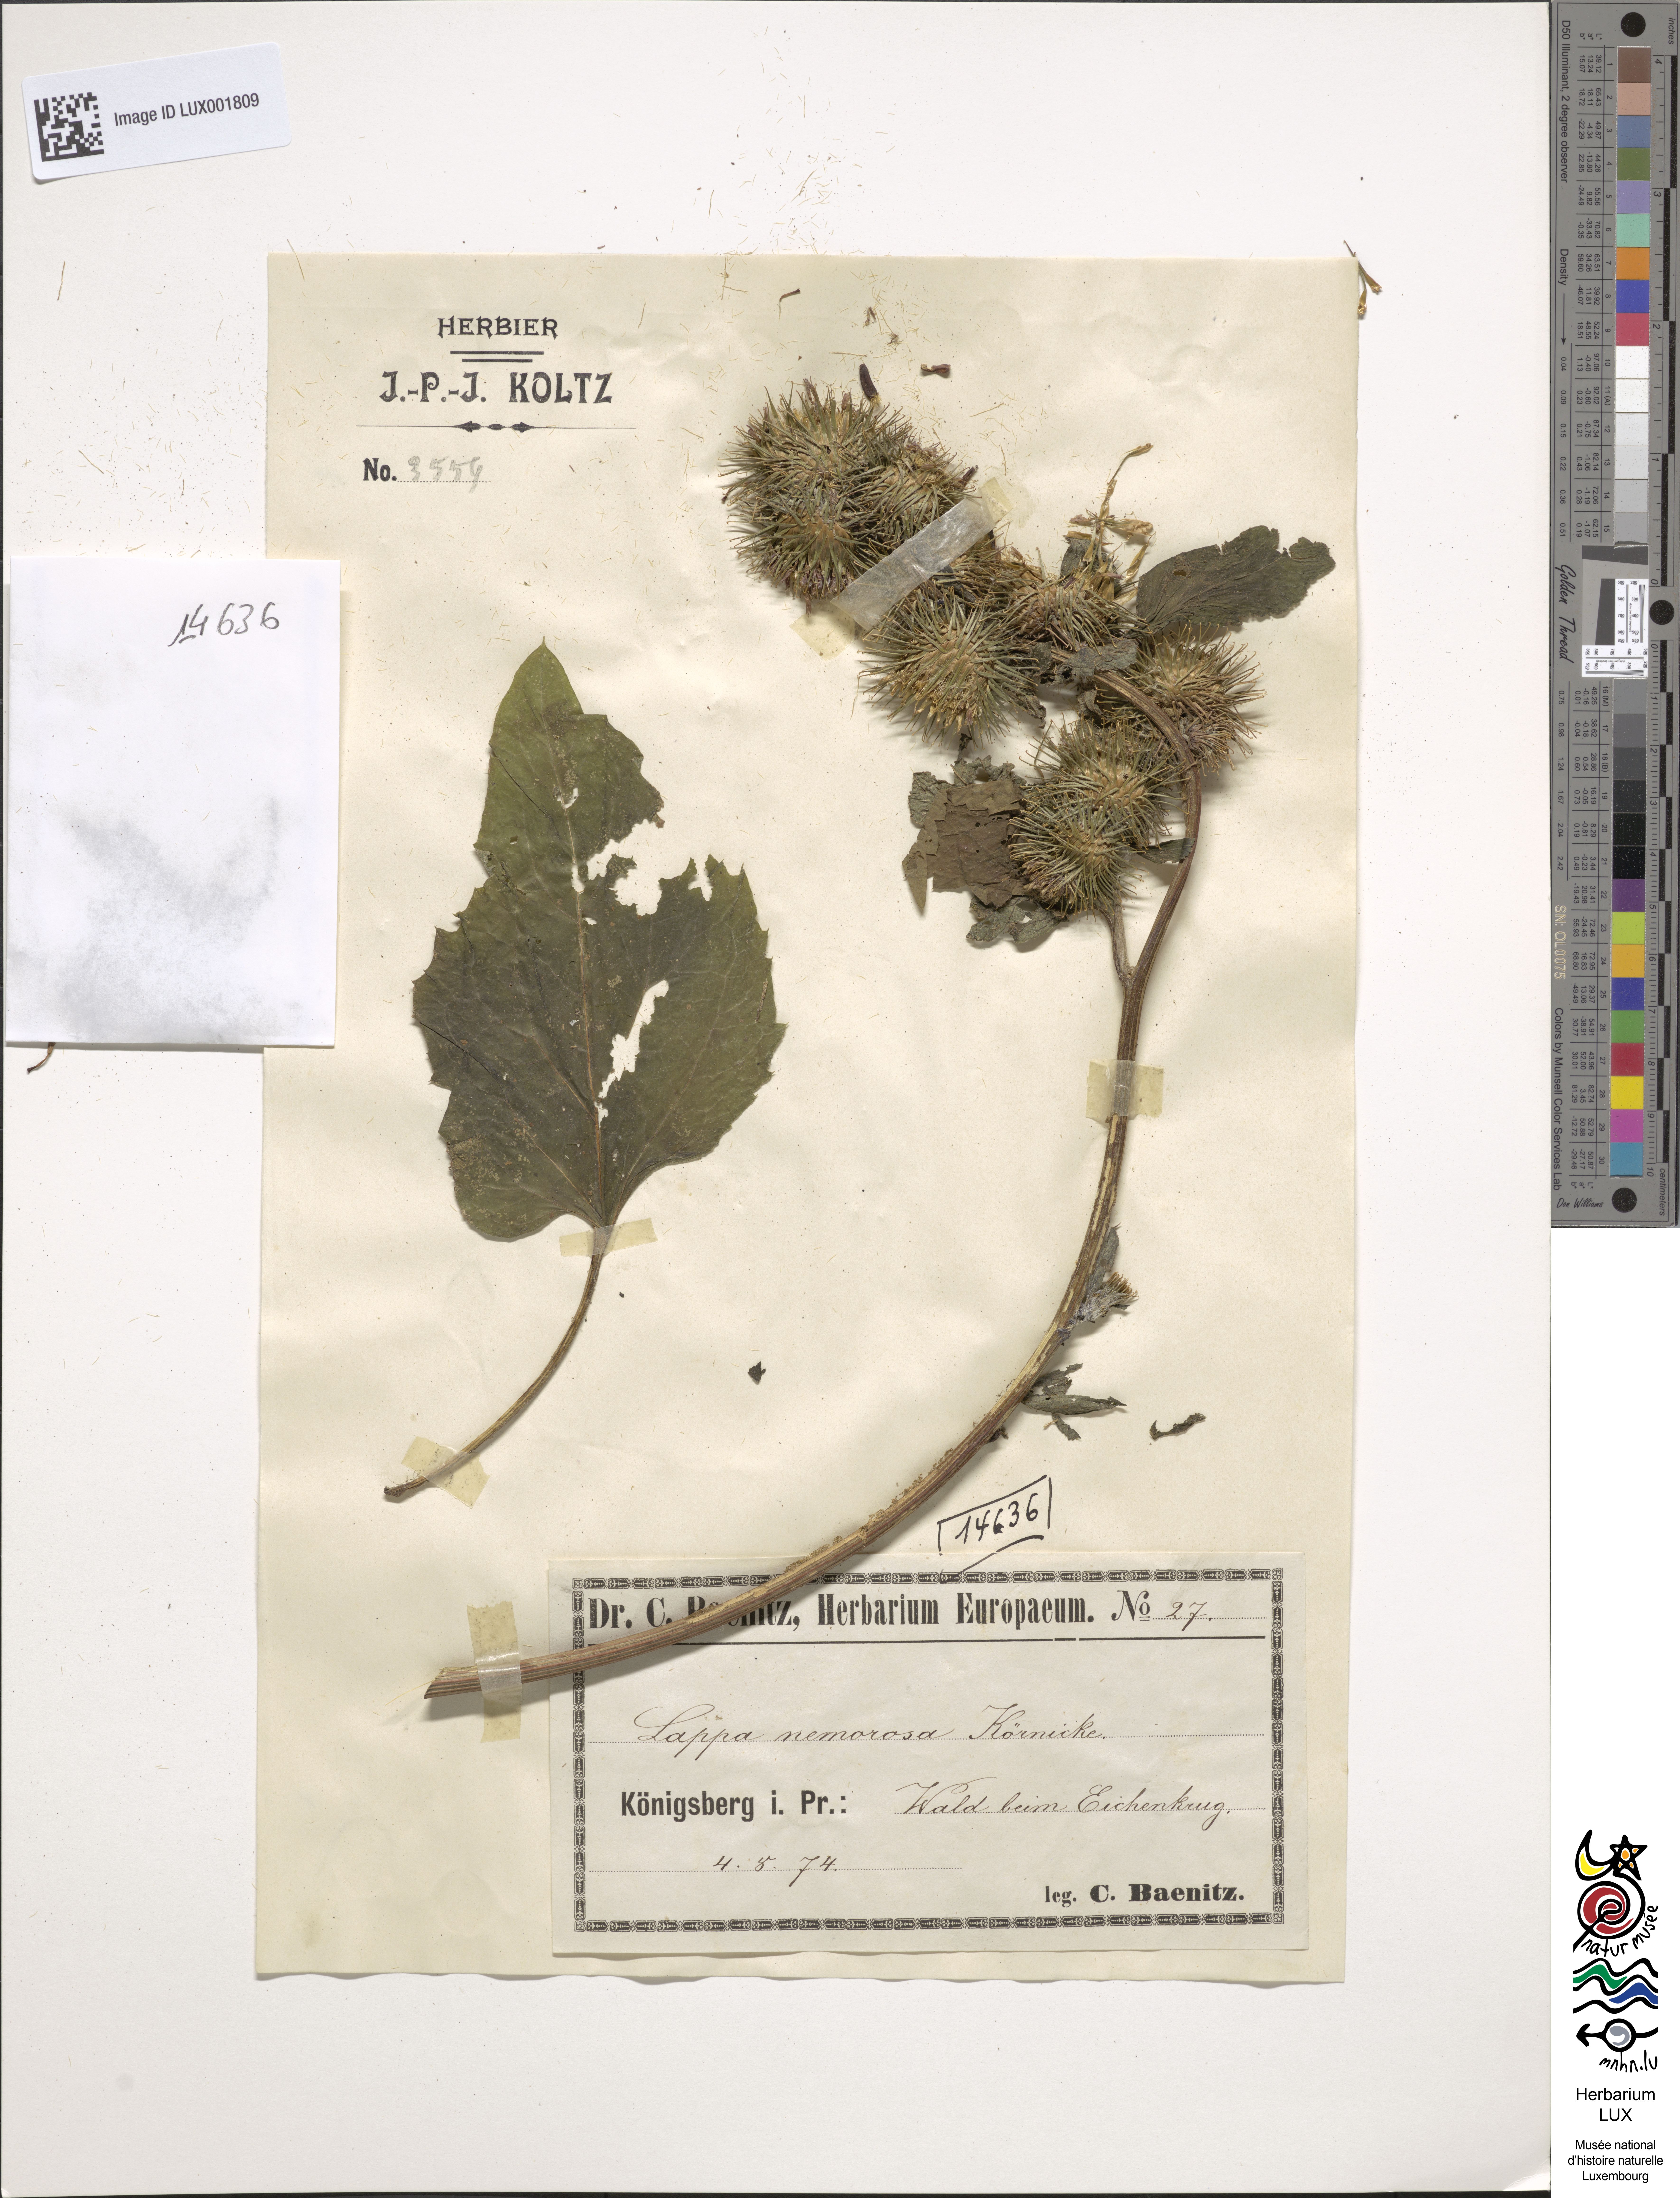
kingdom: Plantae
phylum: Tracheophyta
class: Magnoliopsida
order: Asterales
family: Asteraceae
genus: Arctium
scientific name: Arctium nemorosum
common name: Wood burdock
